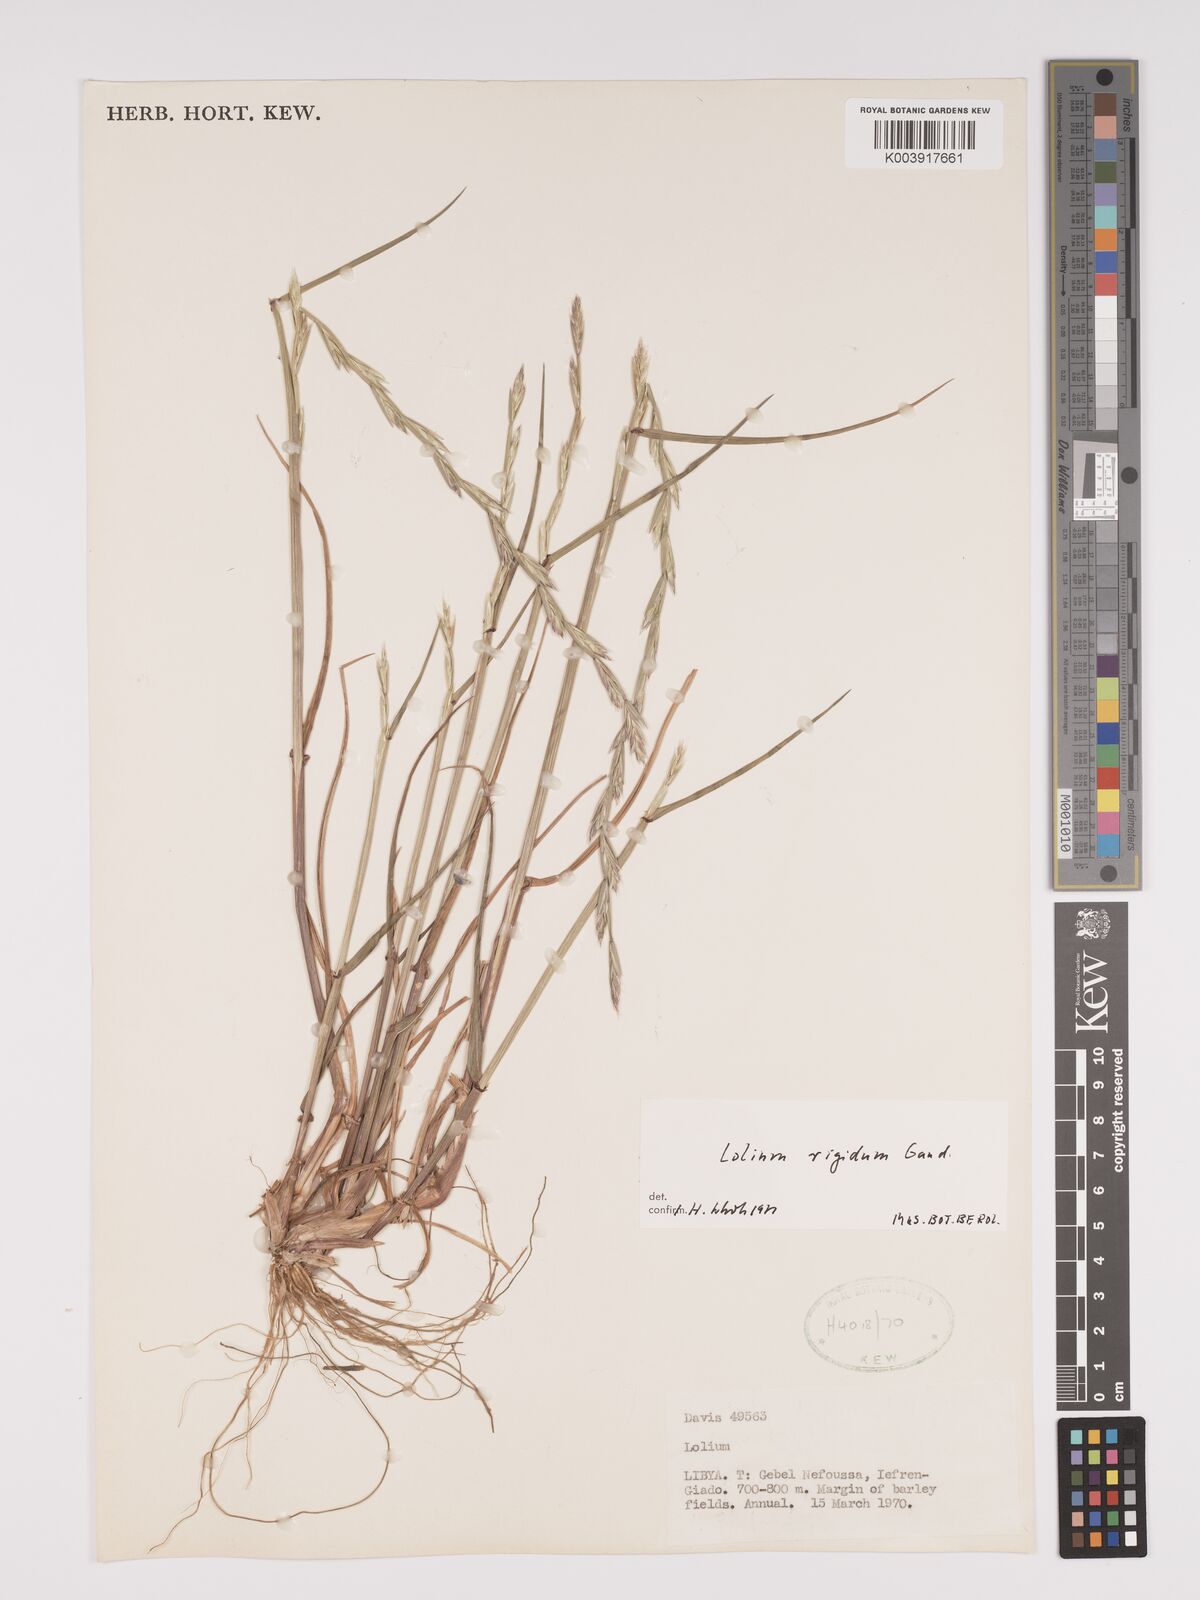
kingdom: Plantae
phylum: Tracheophyta
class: Liliopsida
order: Poales
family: Poaceae
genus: Lolium
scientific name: Lolium rigidum
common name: Wimmera ryegrass
